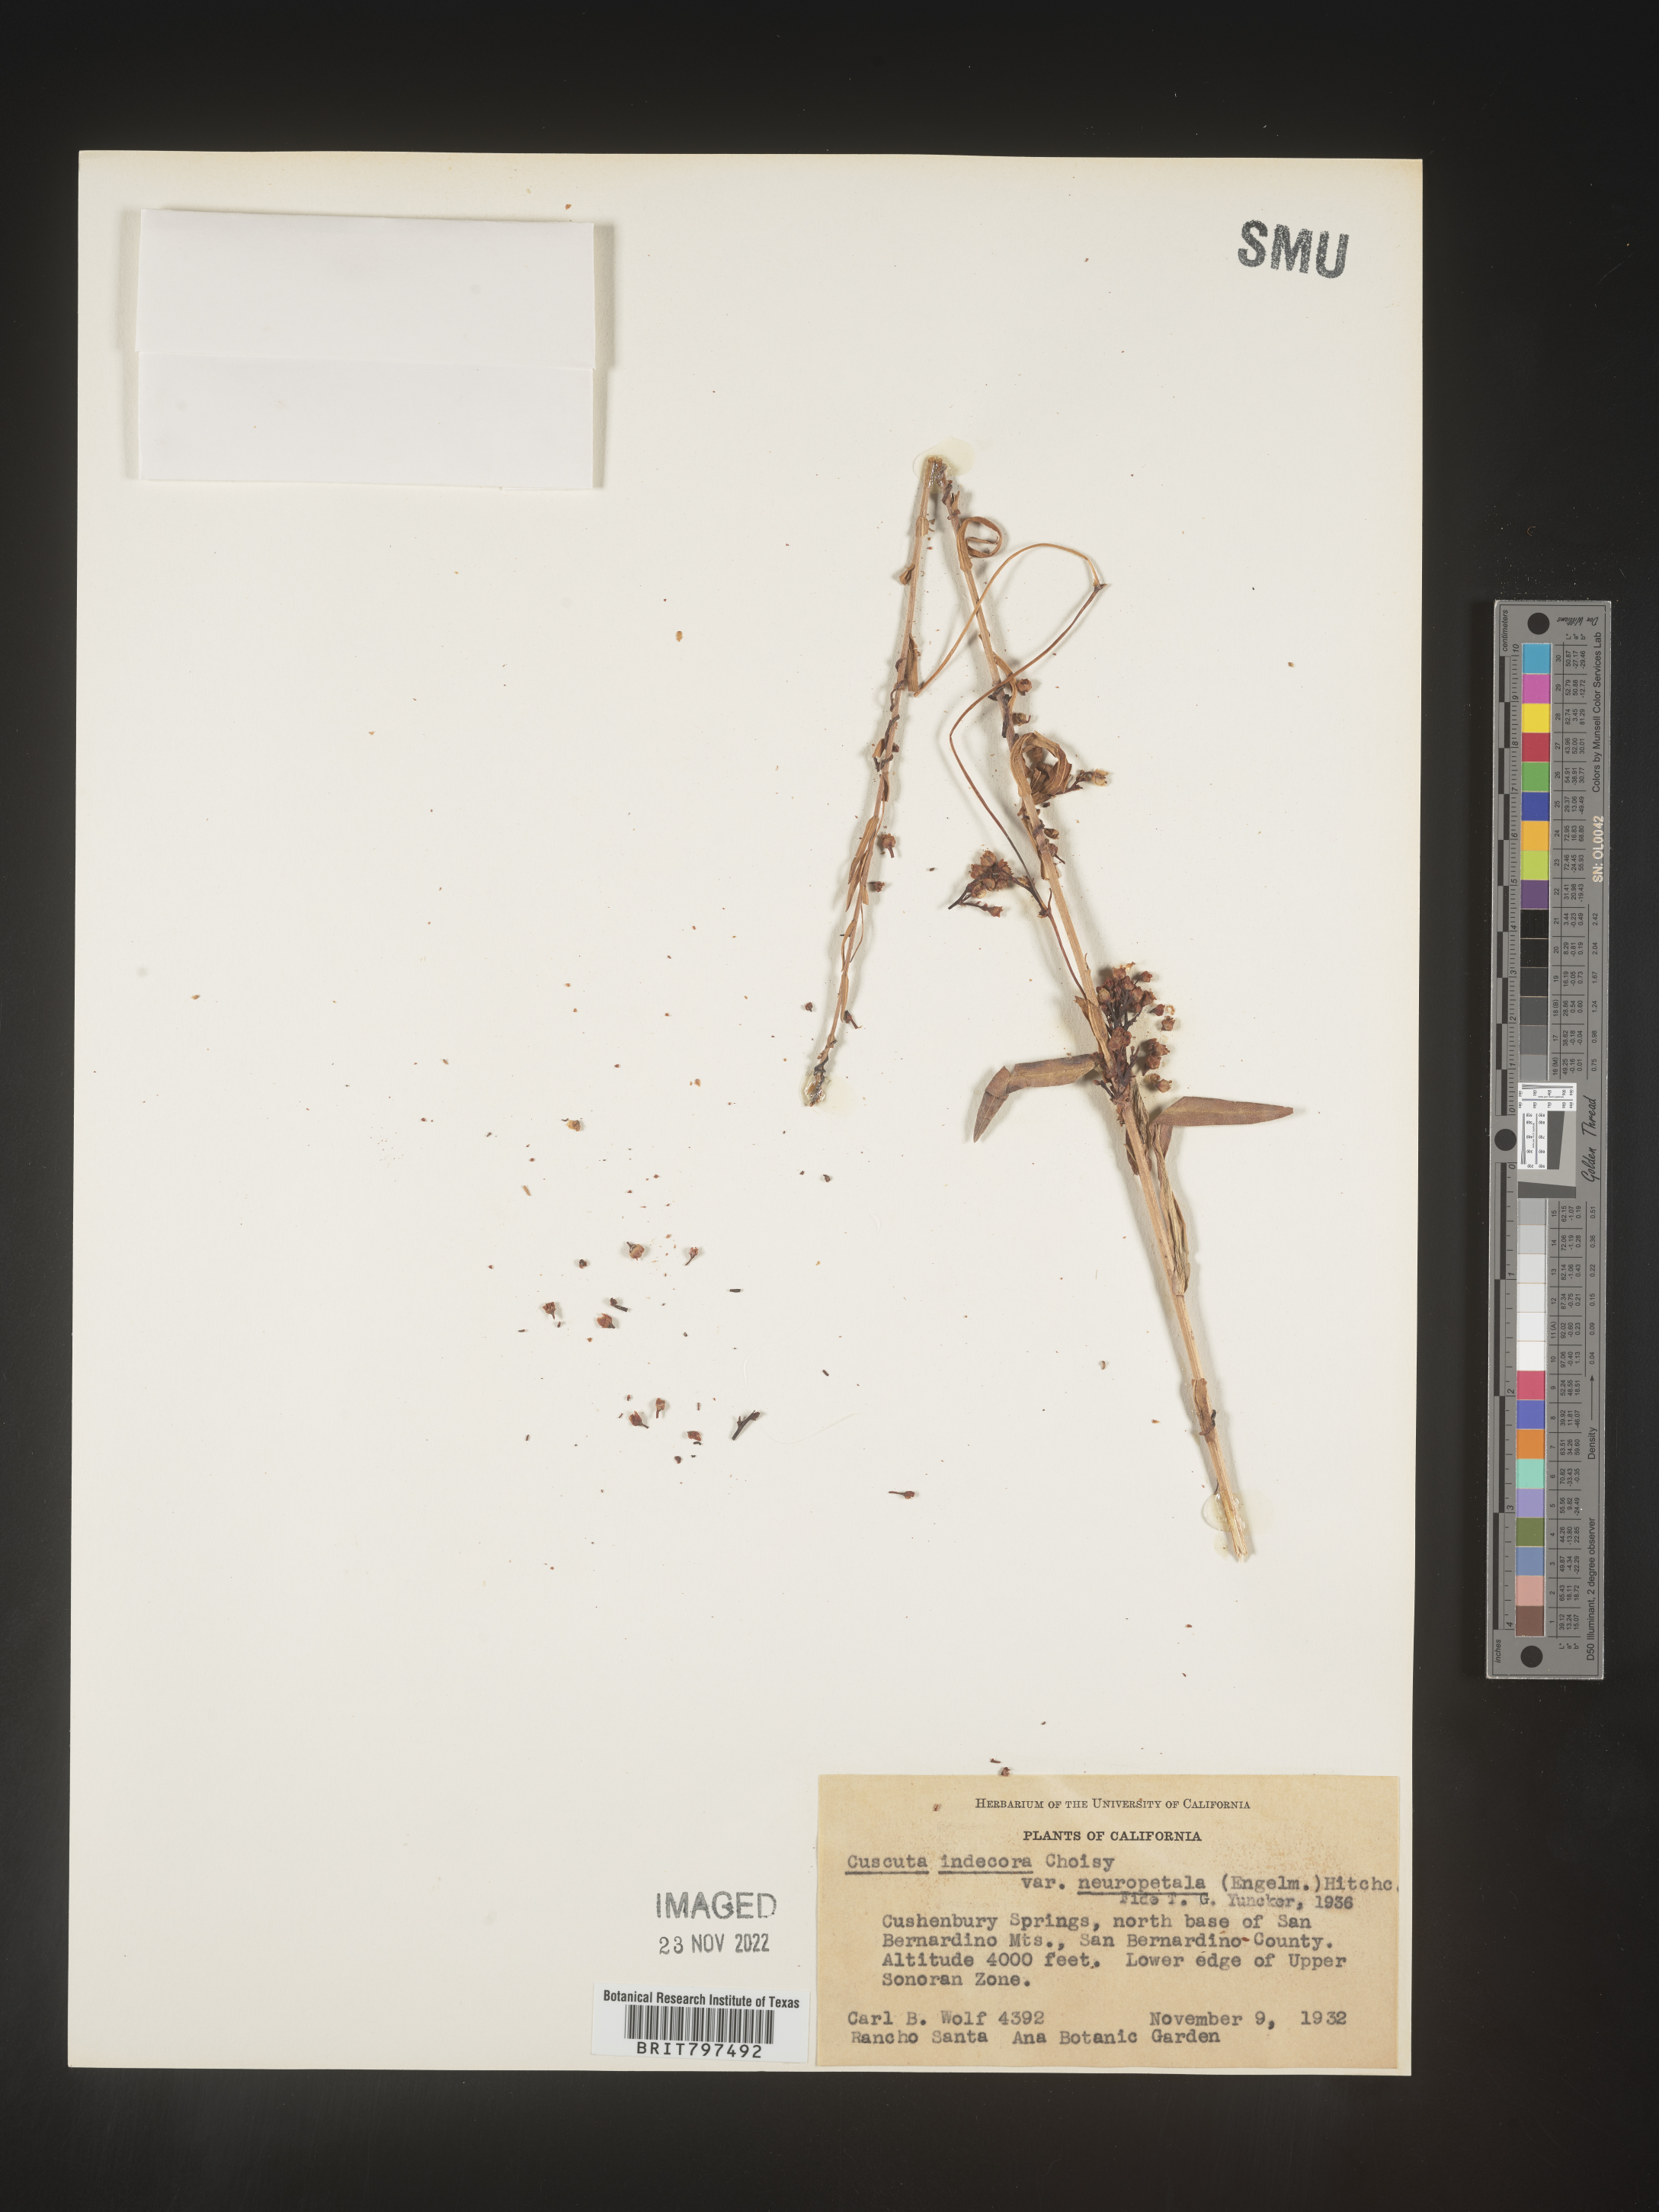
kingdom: Plantae
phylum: Tracheophyta
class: Magnoliopsida
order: Solanales
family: Convolvulaceae
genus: Cuscuta
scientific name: Cuscuta indecora
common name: Large-seed dodder
